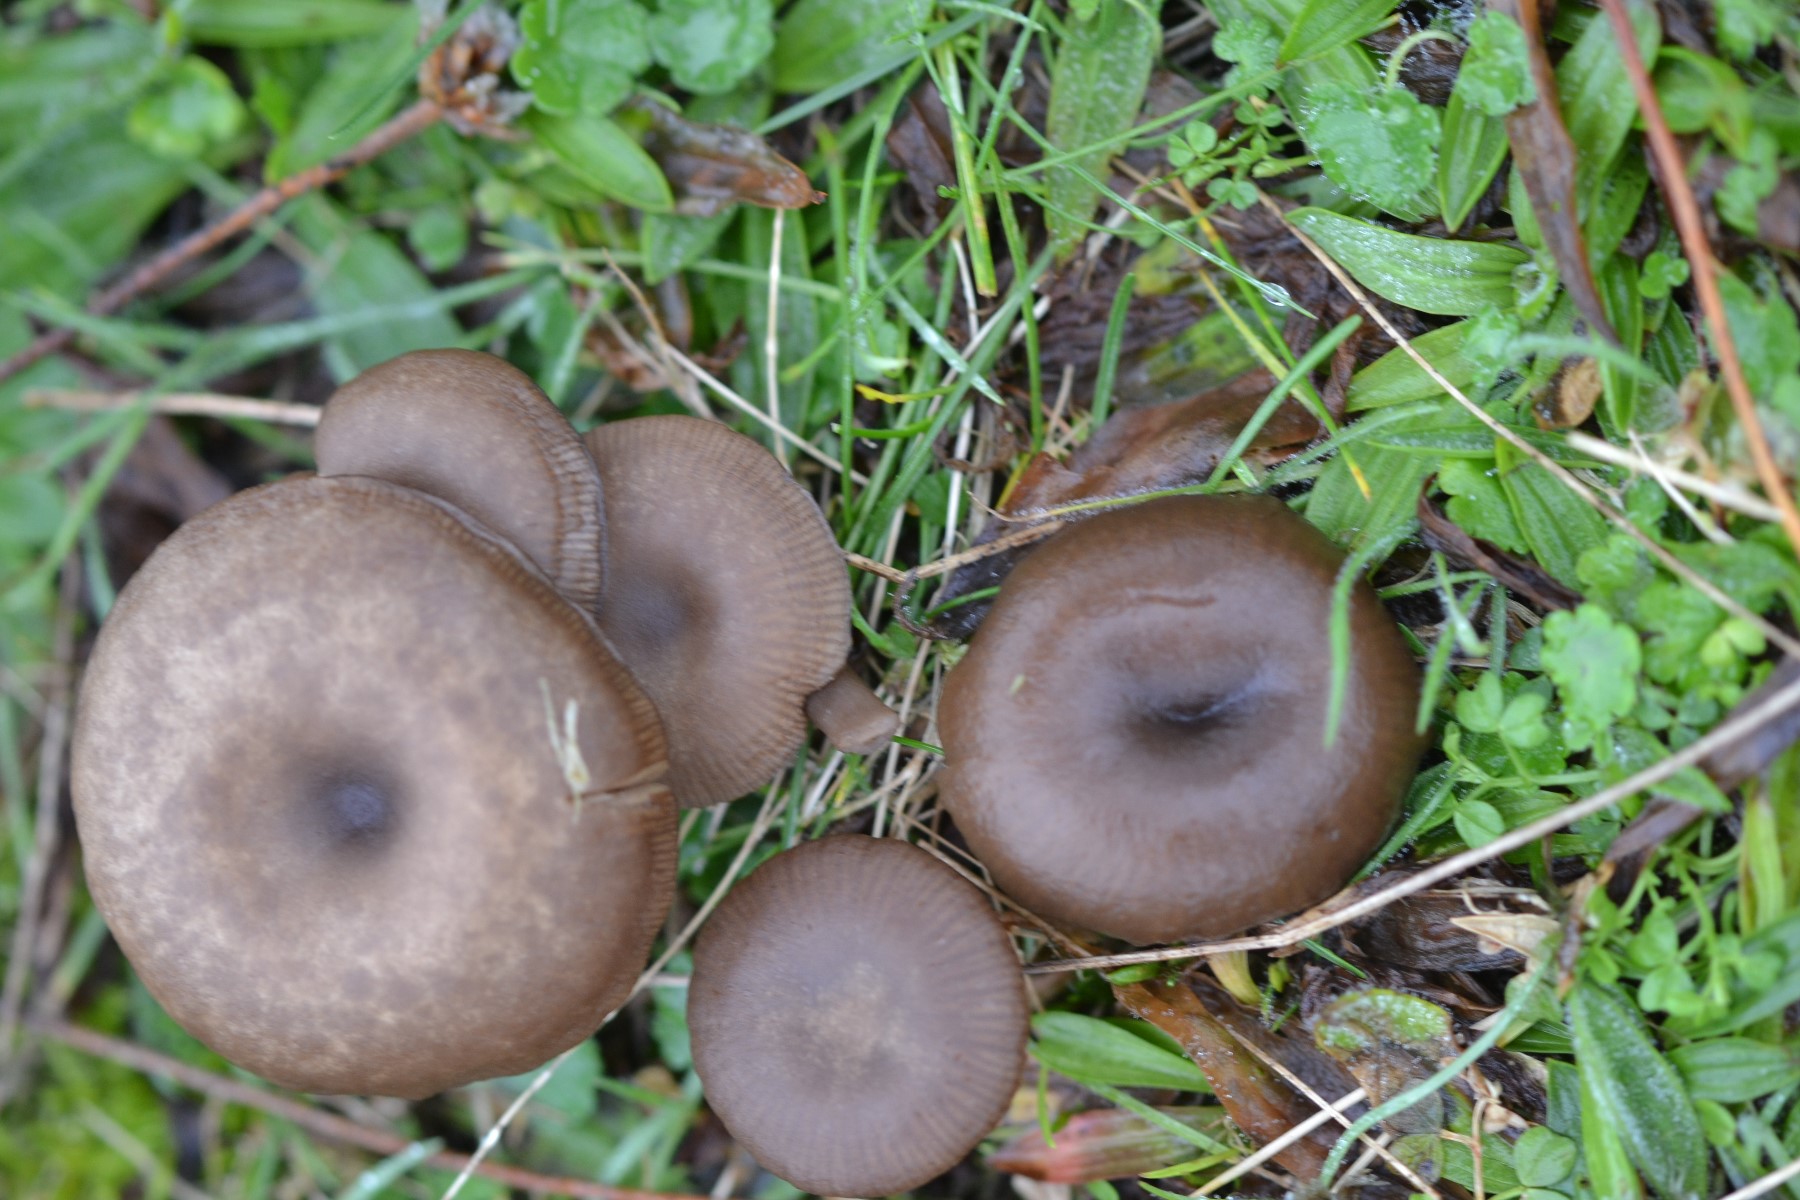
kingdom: Fungi
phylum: Basidiomycota
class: Agaricomycetes
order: Agaricales
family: Pseudoclitocybaceae
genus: Pseudoclitocybe
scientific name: Pseudoclitocybe expallens
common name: lille bægertragthat
